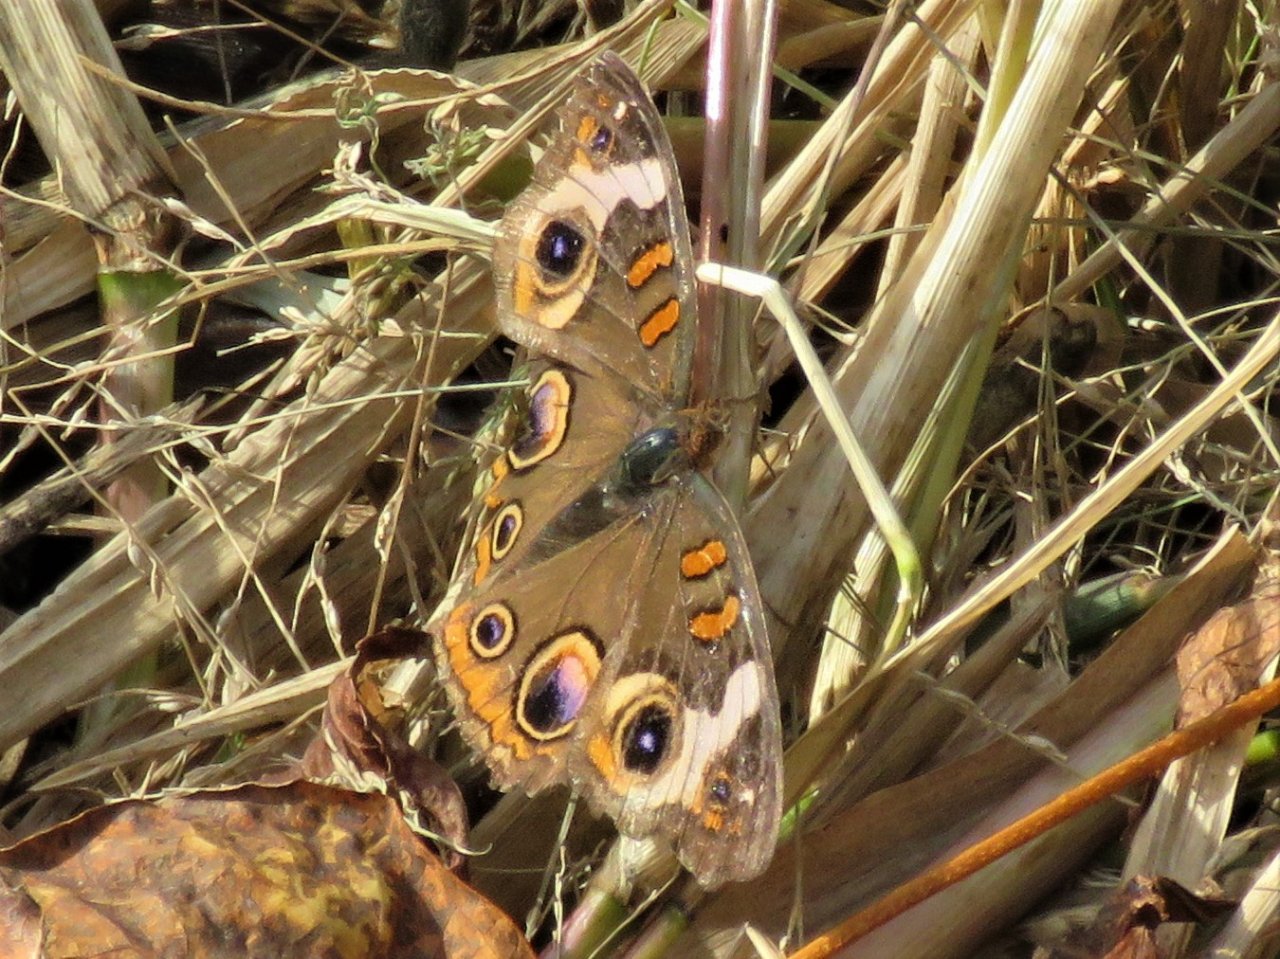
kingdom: Animalia
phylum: Arthropoda
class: Insecta
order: Lepidoptera
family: Nymphalidae
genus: Junonia
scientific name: Junonia coenia
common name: Common Buckeye
